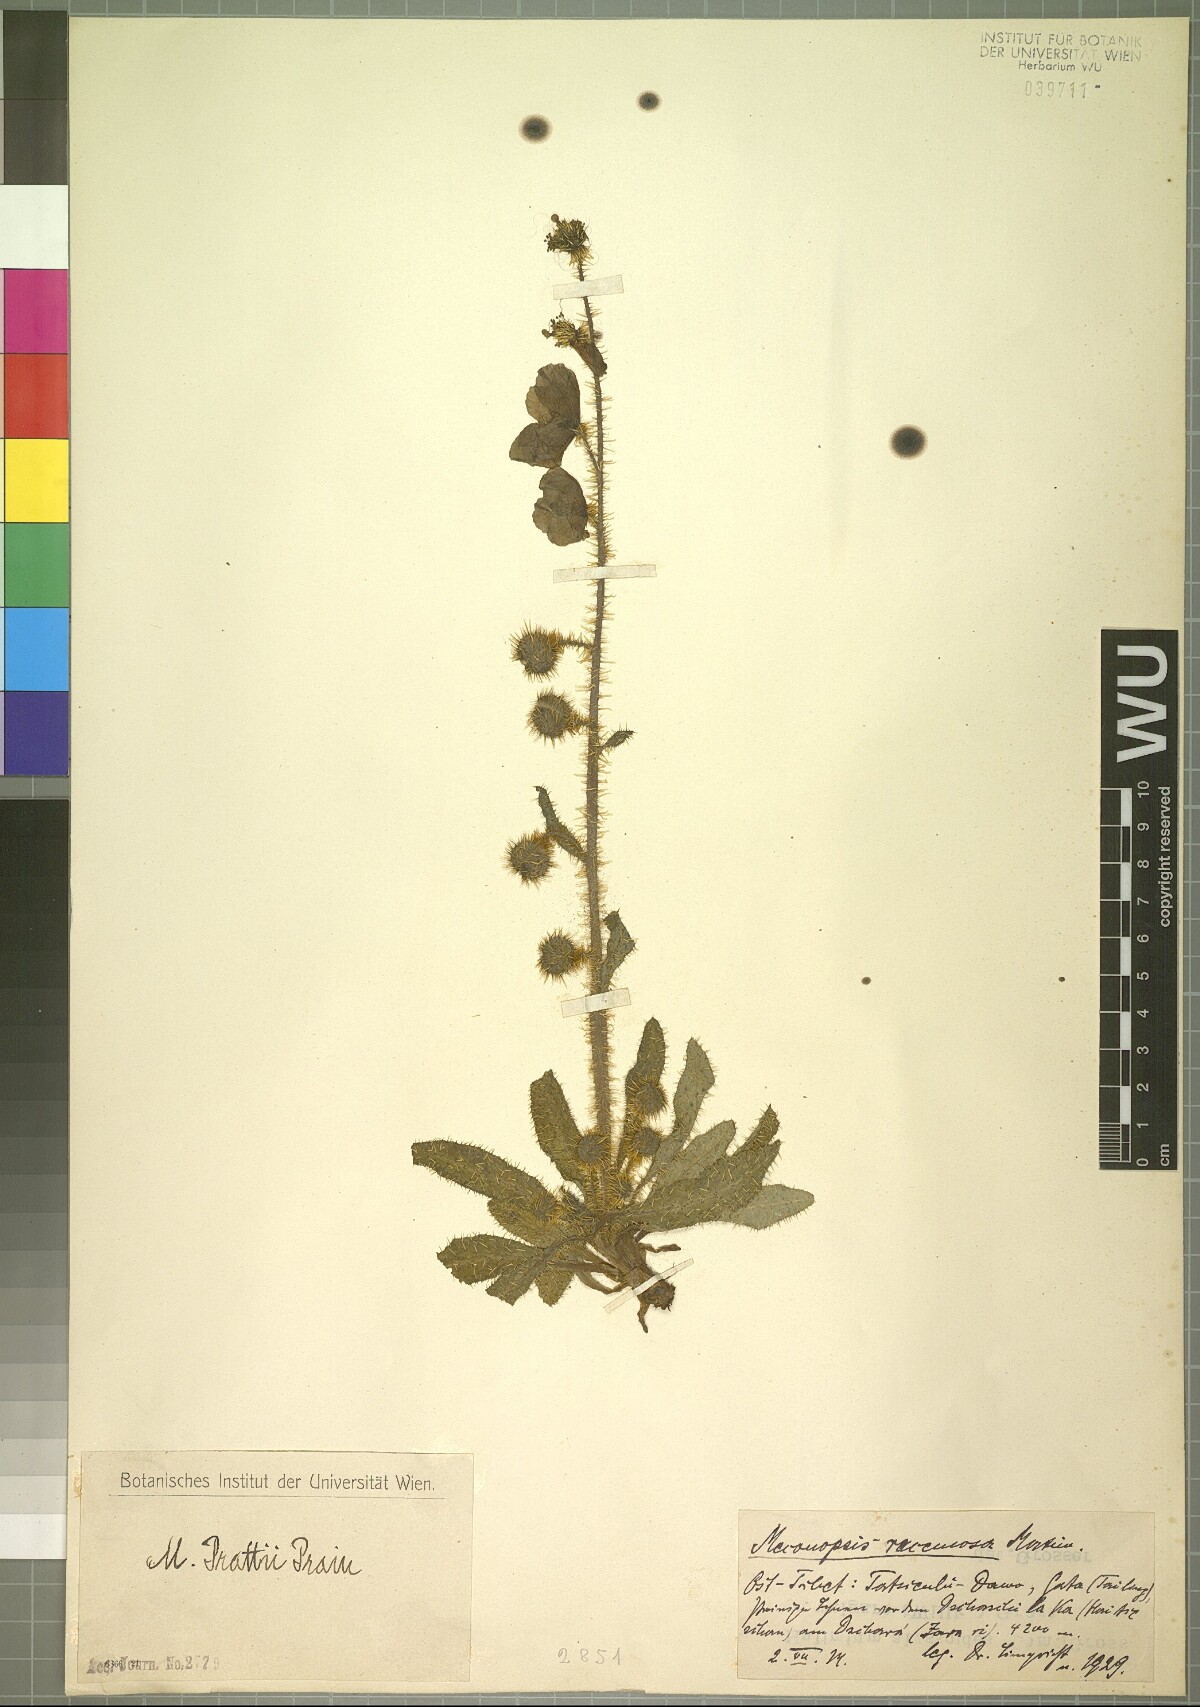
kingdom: Plantae
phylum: Tracheophyta
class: Magnoliopsida
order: Ranunculales
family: Papaveraceae
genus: Meconopsis
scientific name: Meconopsis racemosa
